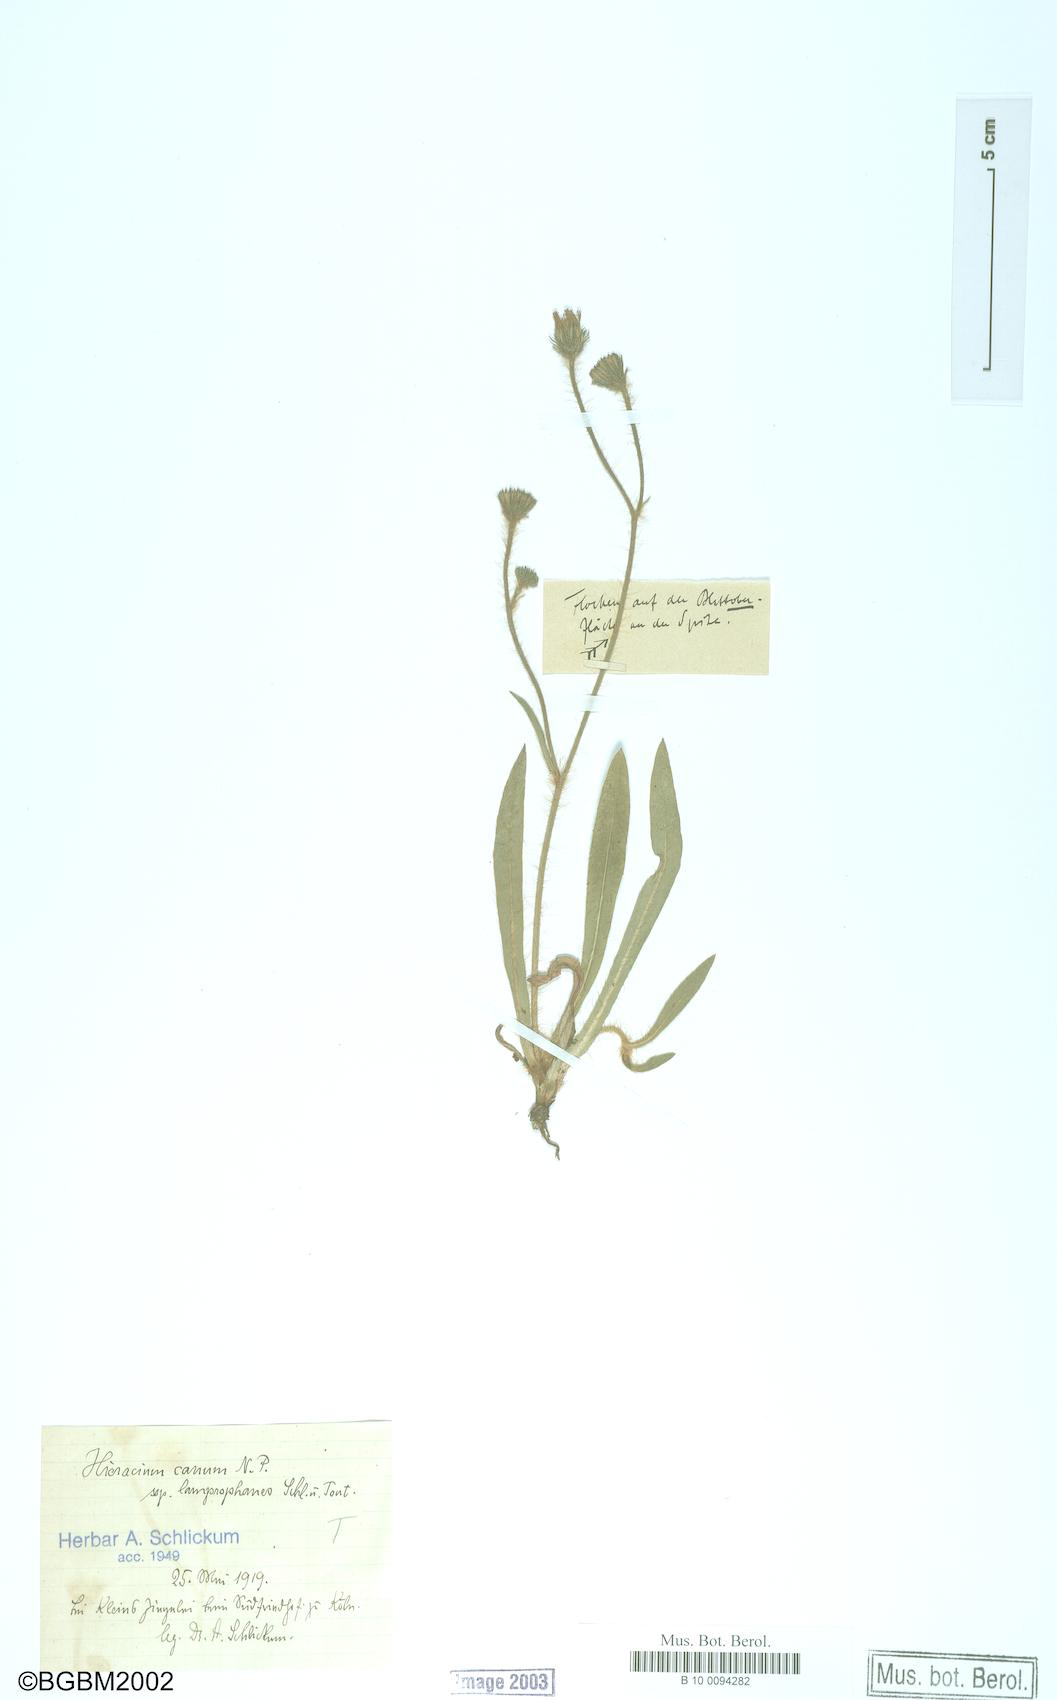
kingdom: Plantae
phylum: Tracheophyta
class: Magnoliopsida
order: Asterales
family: Asteraceae
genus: Pilosella
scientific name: Pilosella pilosellina
